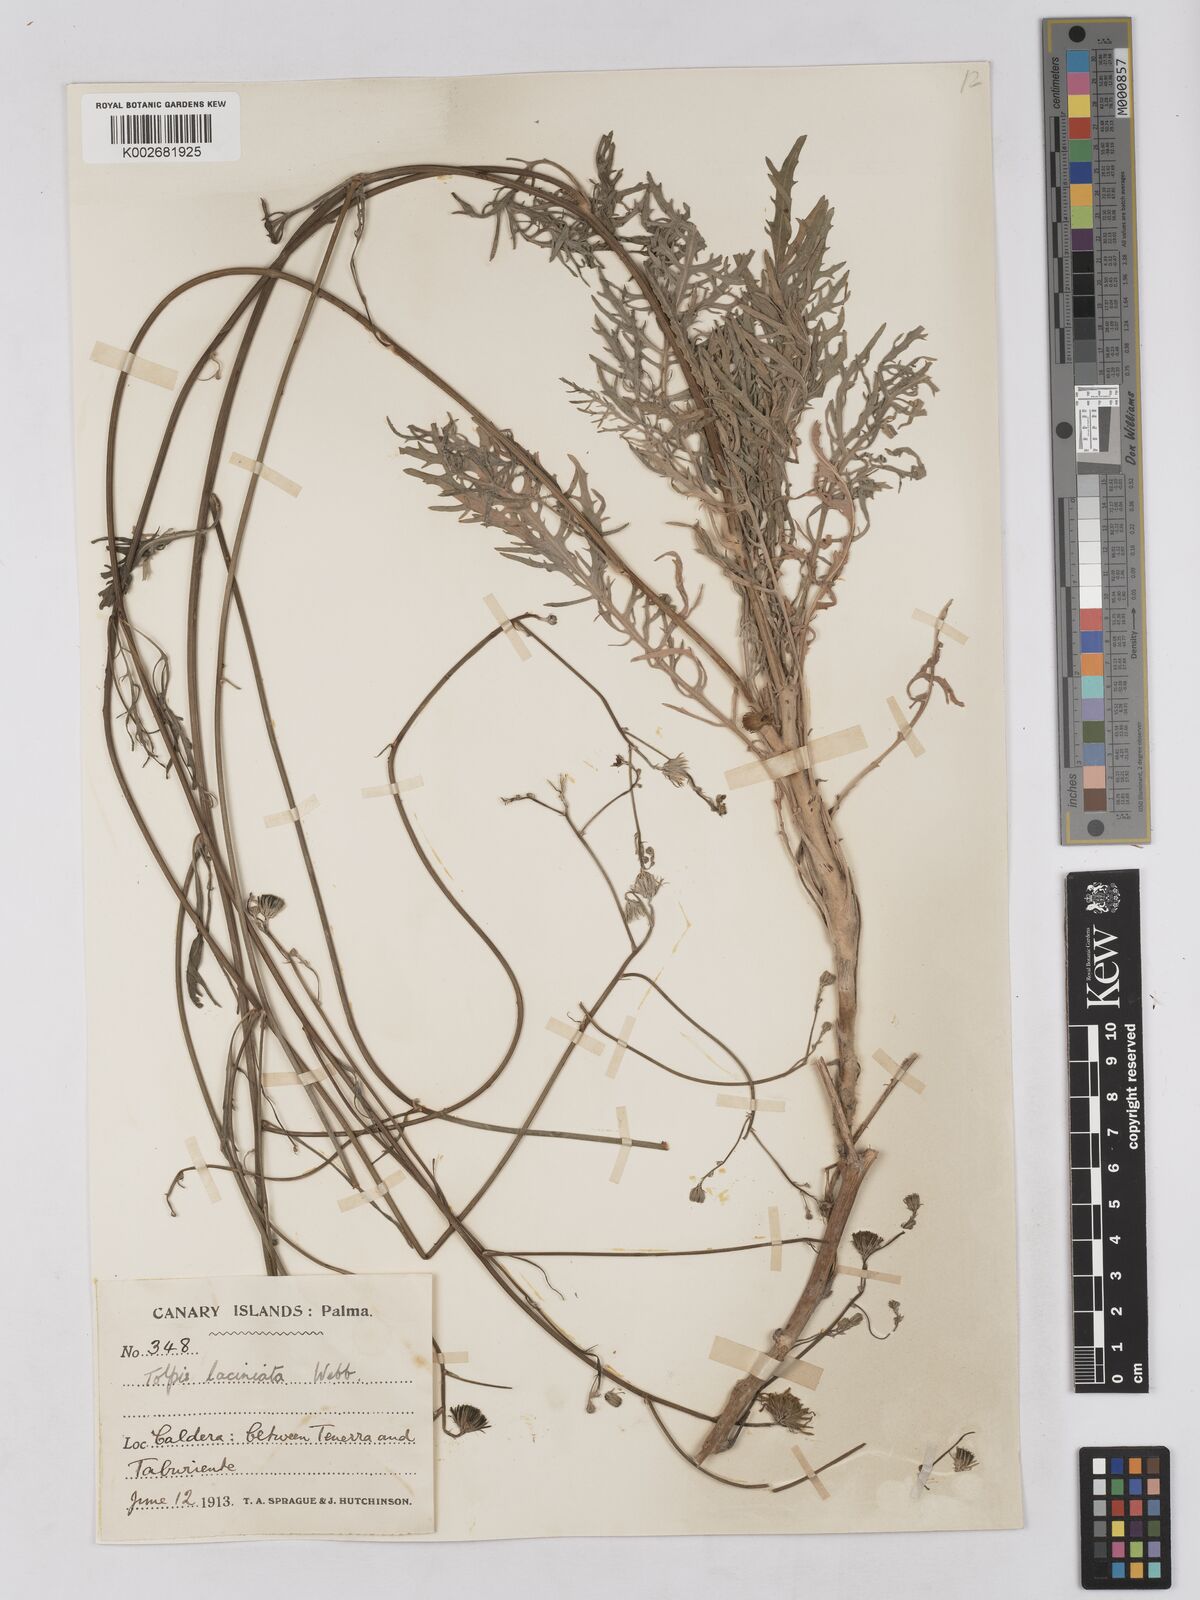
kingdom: Plantae
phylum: Tracheophyta
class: Magnoliopsida
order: Asterales
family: Asteraceae
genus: Tolpis
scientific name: Tolpis laciniata
